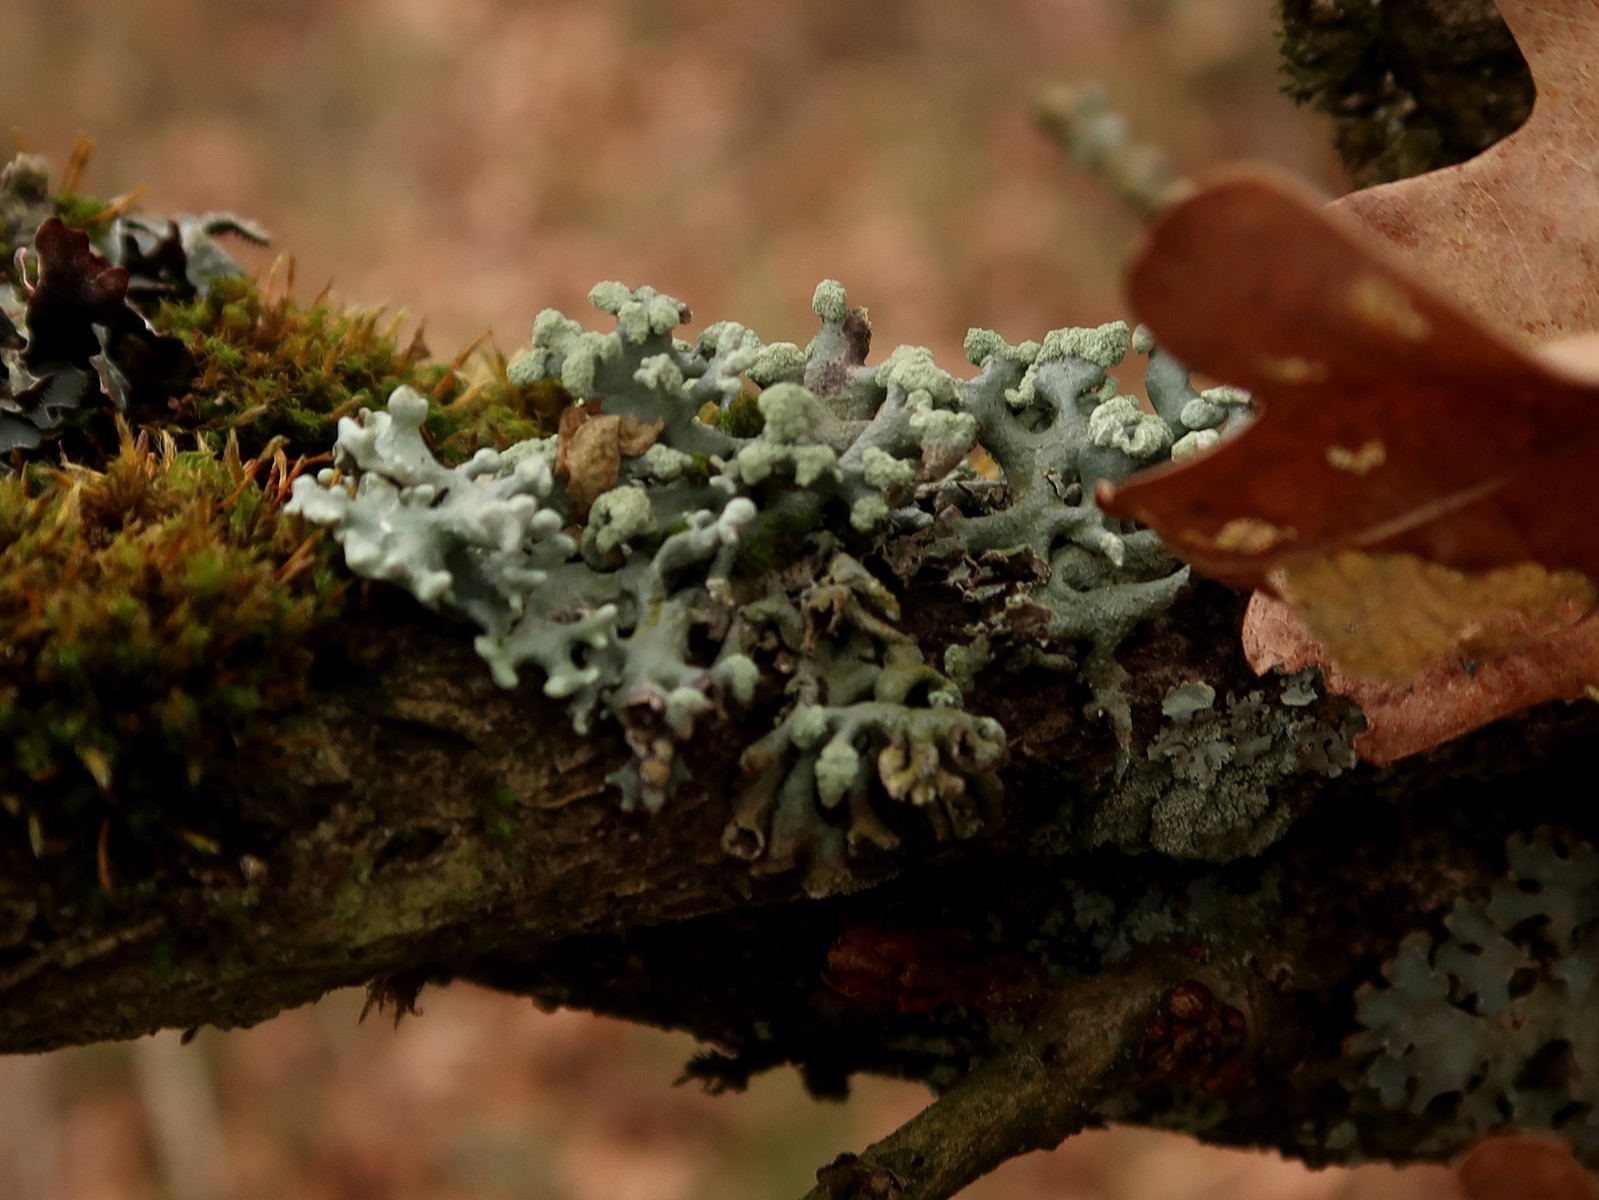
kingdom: Fungi
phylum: Ascomycota
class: Lecanoromycetes
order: Lecanorales
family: Parmeliaceae
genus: Hypogymnia
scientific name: Hypogymnia tubulosa
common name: finger-kvistlav
